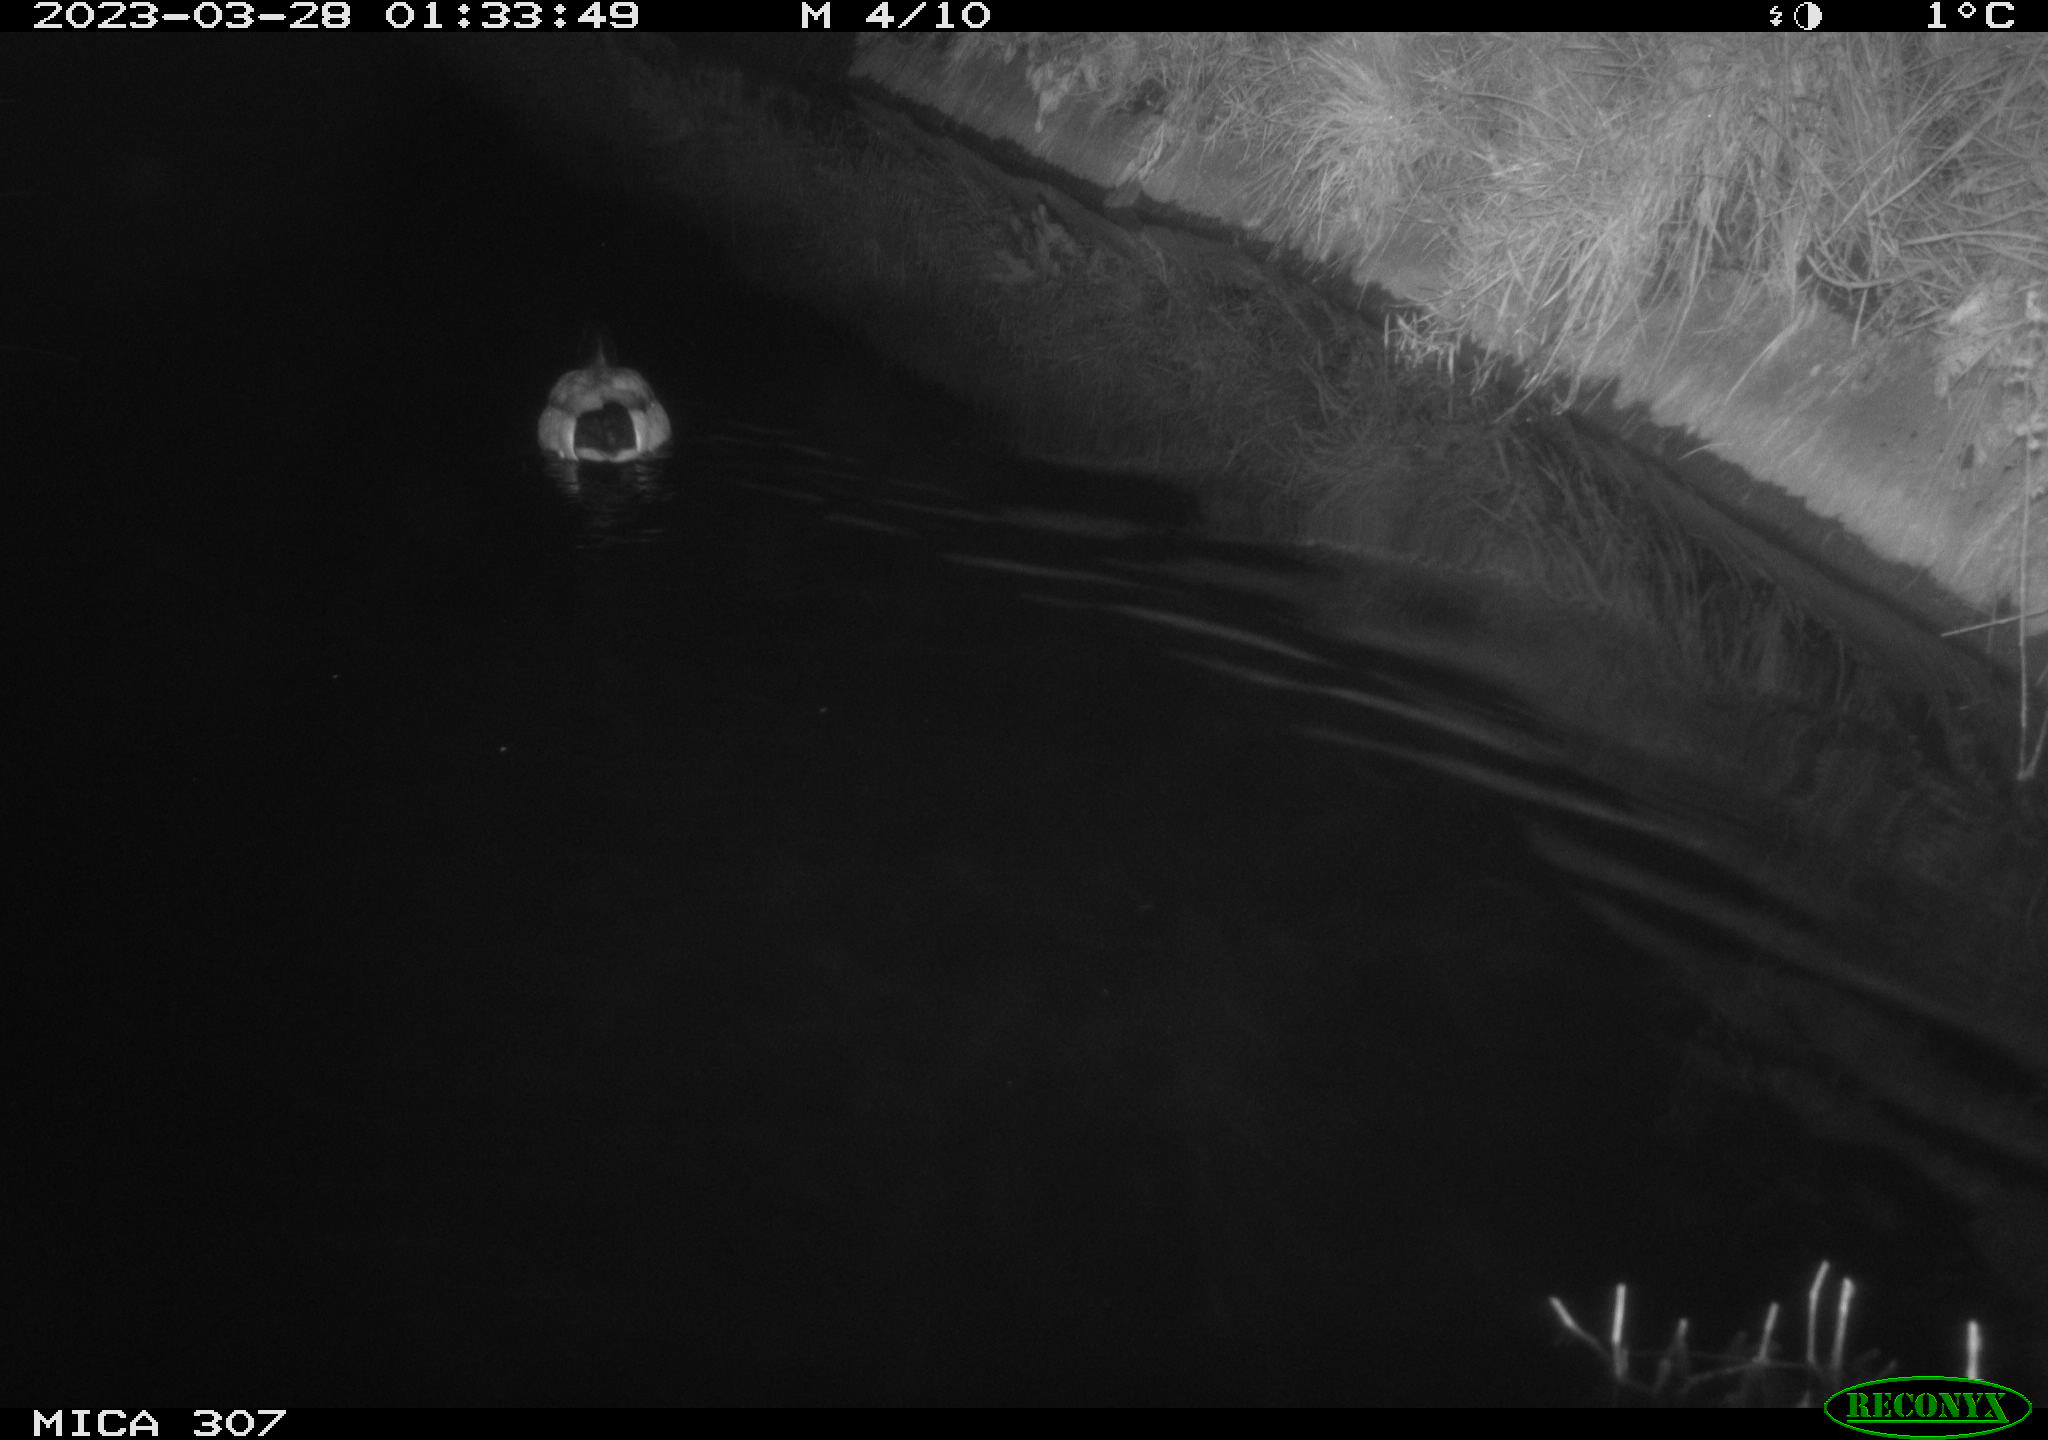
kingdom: Animalia
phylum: Chordata
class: Aves
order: Anseriformes
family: Anatidae
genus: Anas
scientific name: Anas
